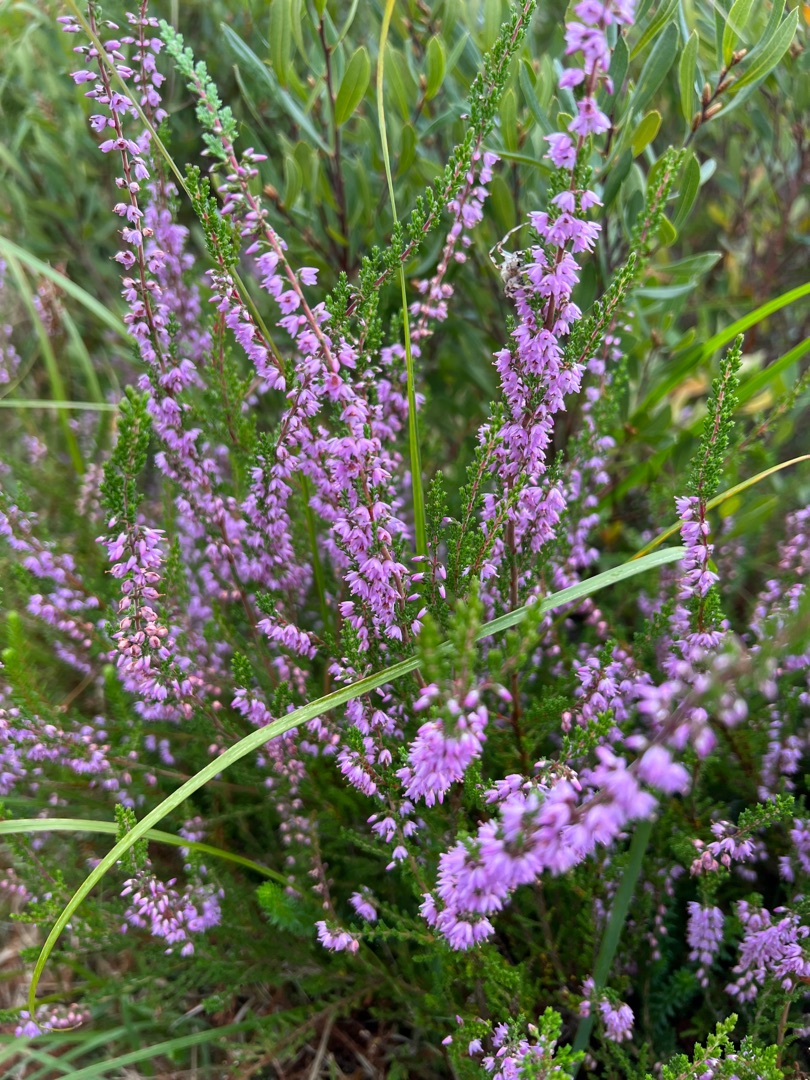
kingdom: Plantae
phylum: Tracheophyta
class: Magnoliopsida
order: Ericales
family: Ericaceae
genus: Calluna
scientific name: Calluna vulgaris
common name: Hedelyng
